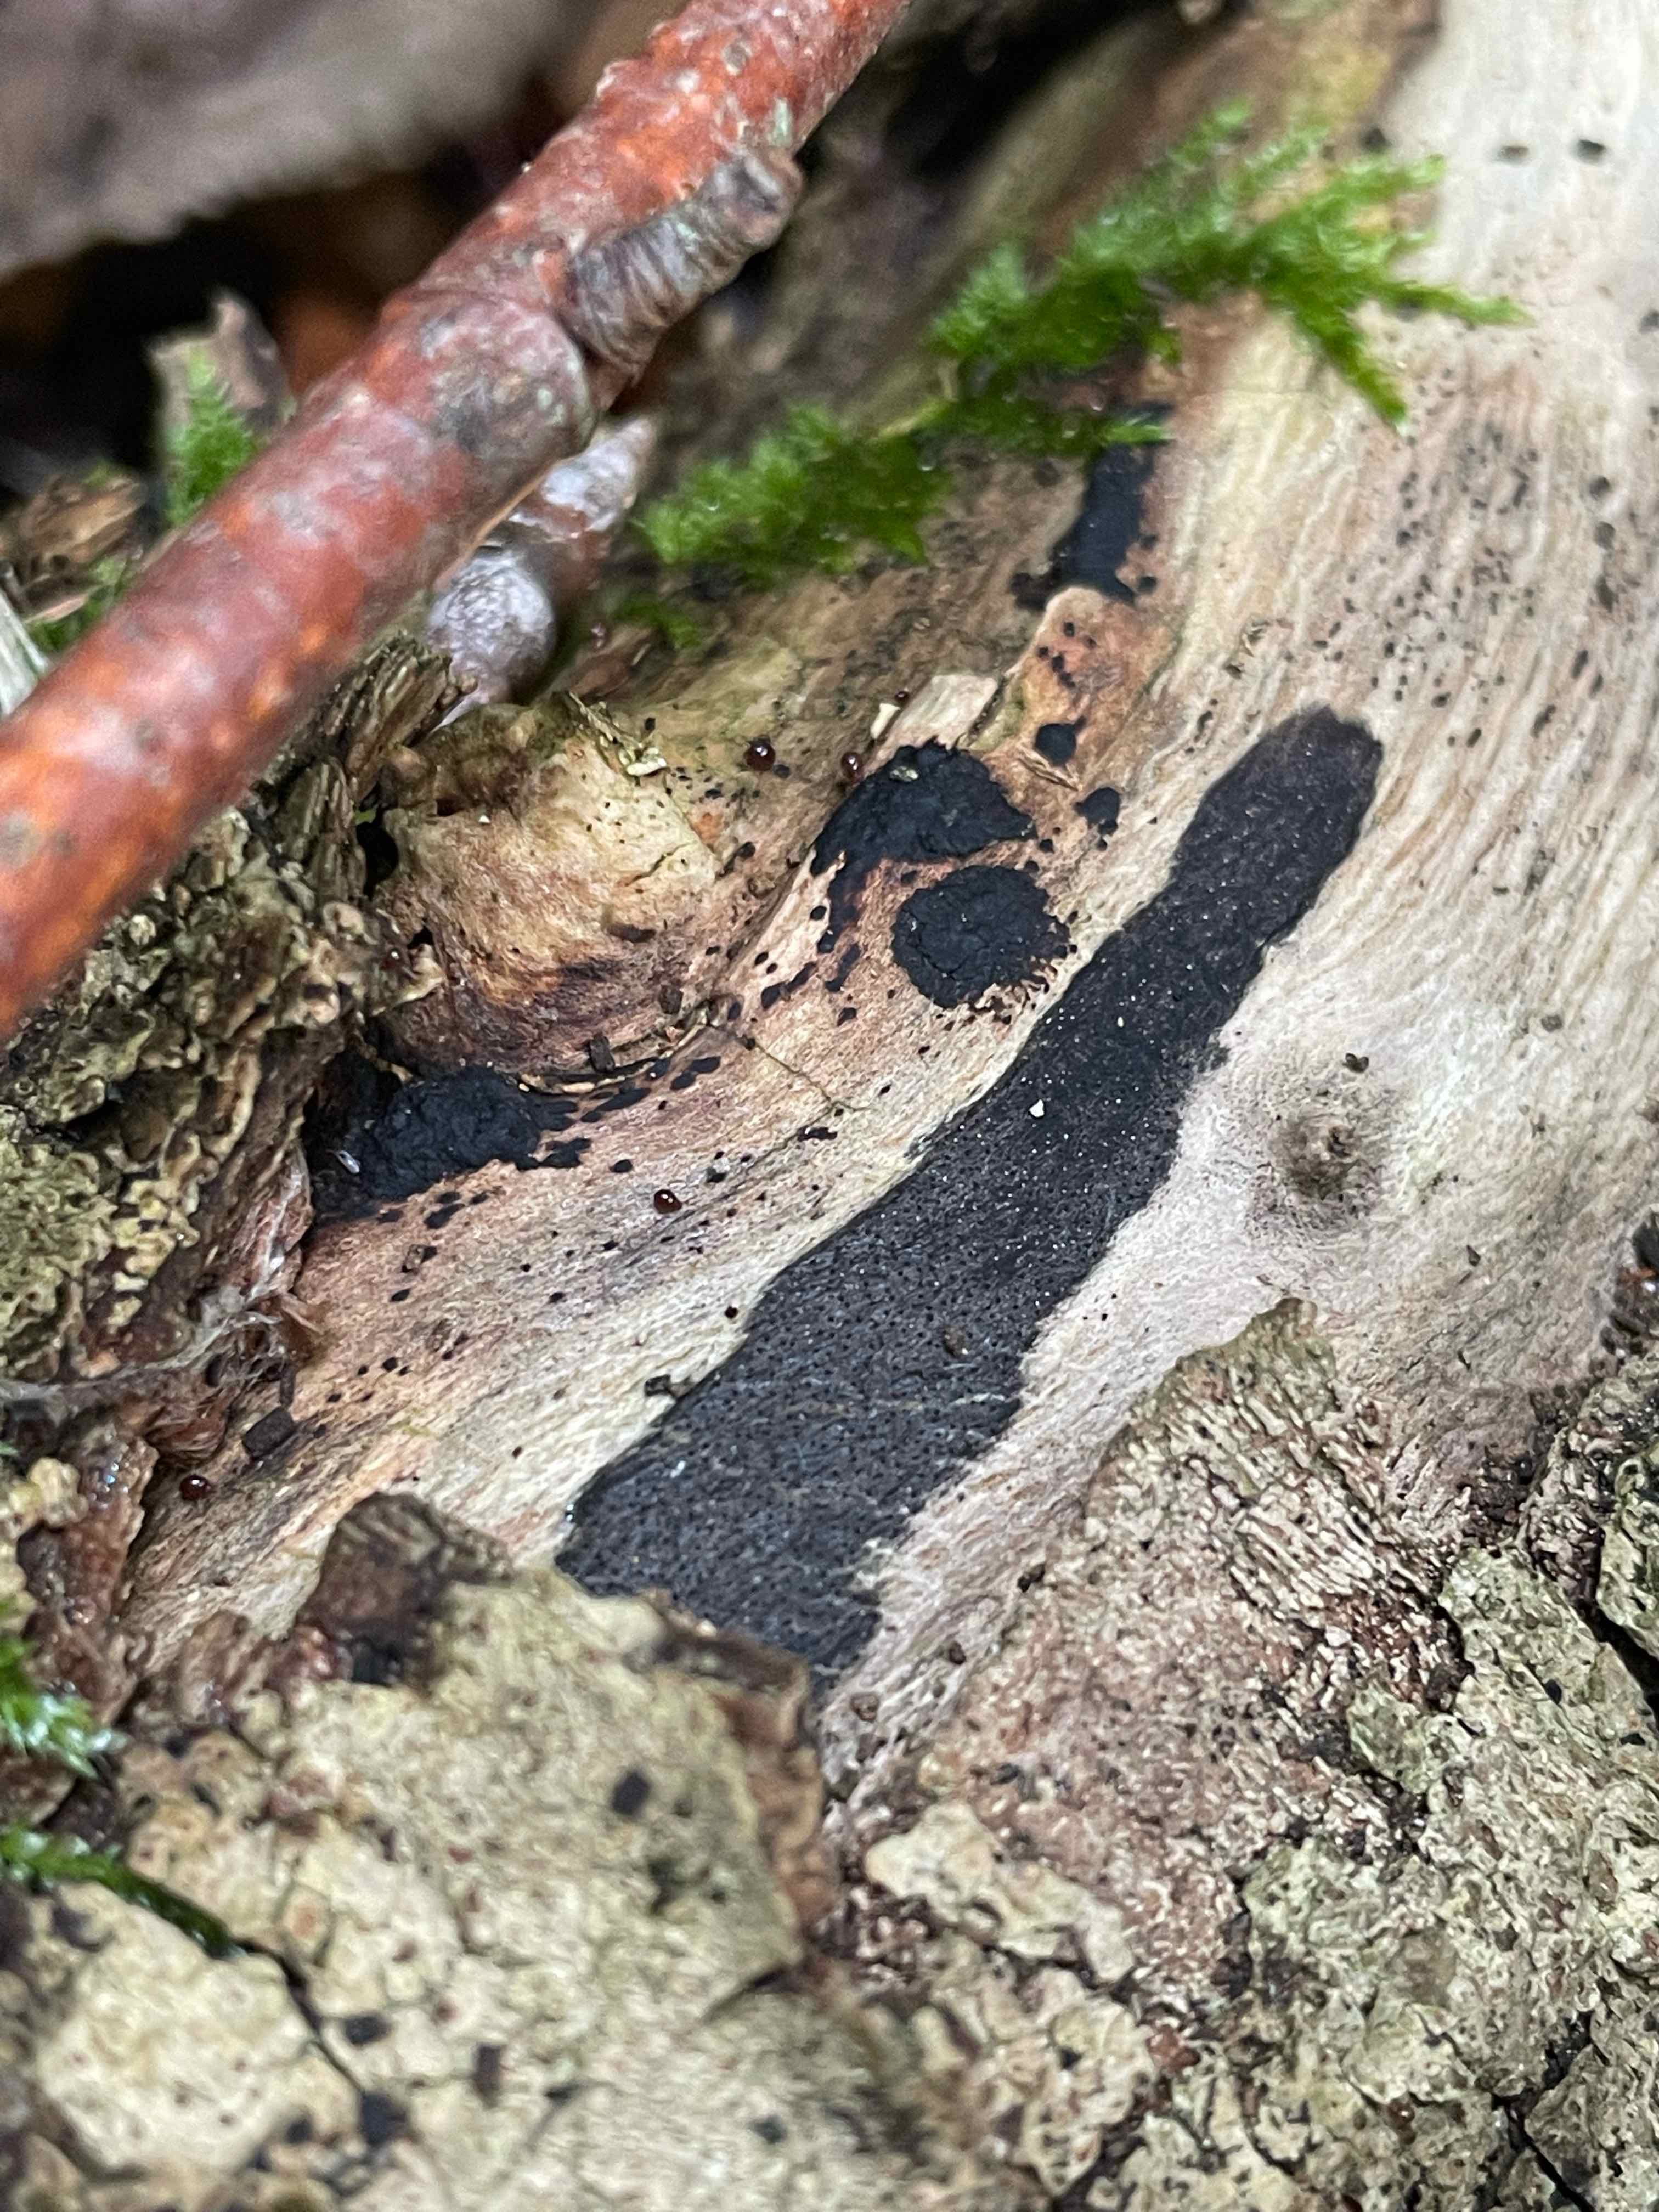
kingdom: Fungi
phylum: Ascomycota
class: Sordariomycetes
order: Xylariales
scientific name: Xylariales
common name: stødsvampordenen
